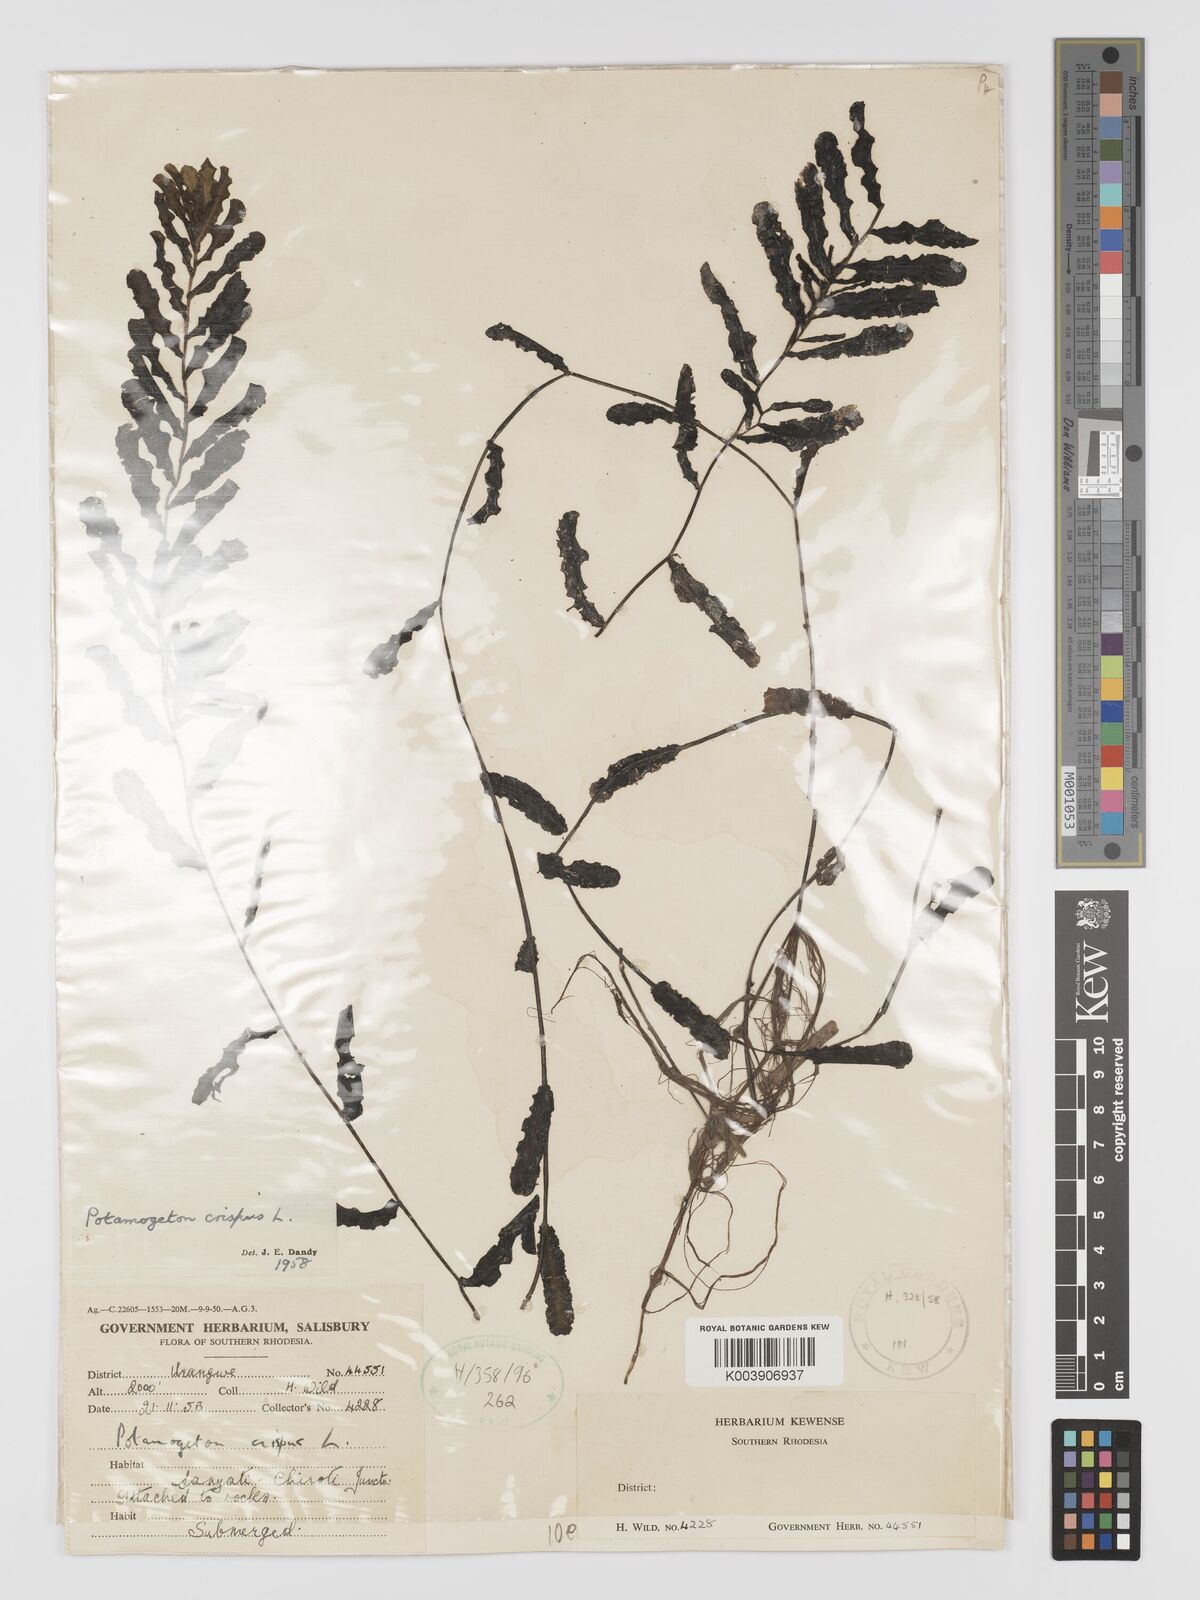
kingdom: Plantae
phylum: Tracheophyta
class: Liliopsida
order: Alismatales
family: Potamogetonaceae
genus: Potamogeton
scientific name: Potamogeton crispus
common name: Curled pondweed
